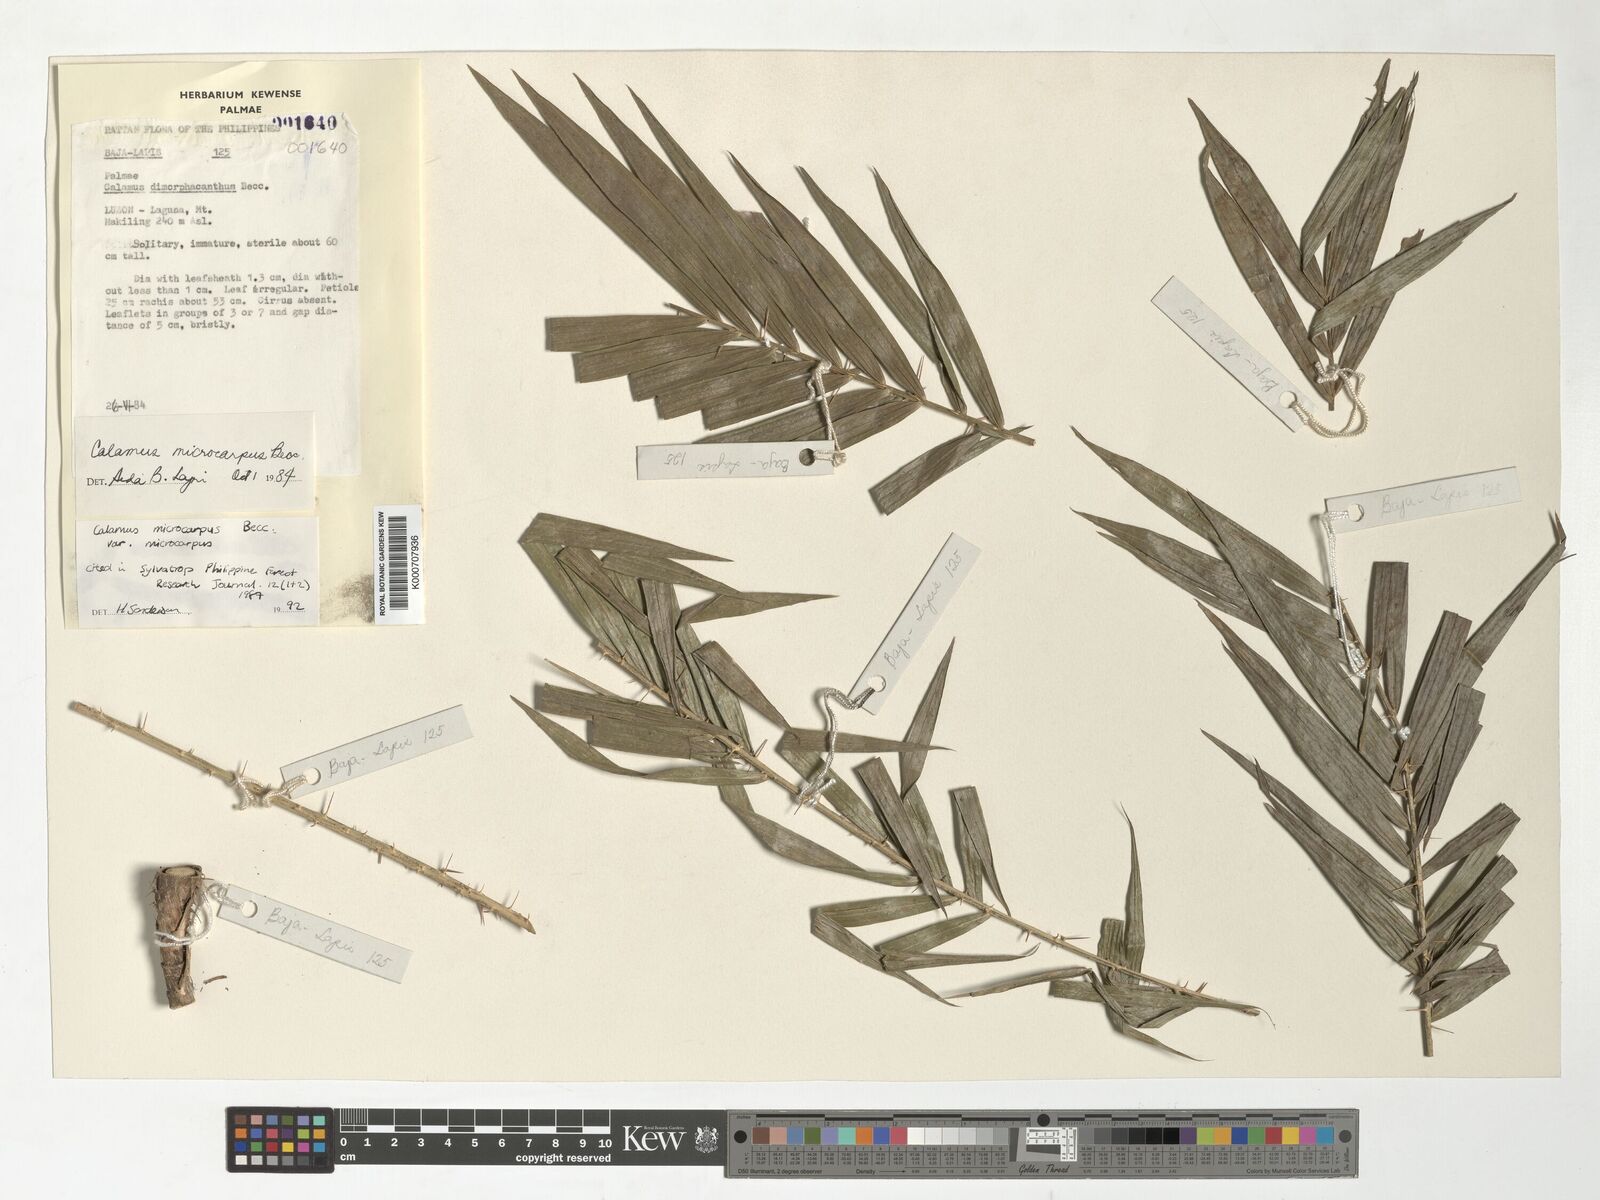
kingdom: Plantae
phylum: Tracheophyta
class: Liliopsida
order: Arecales
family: Arecaceae
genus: Calamus
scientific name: Calamus siphonospathus
